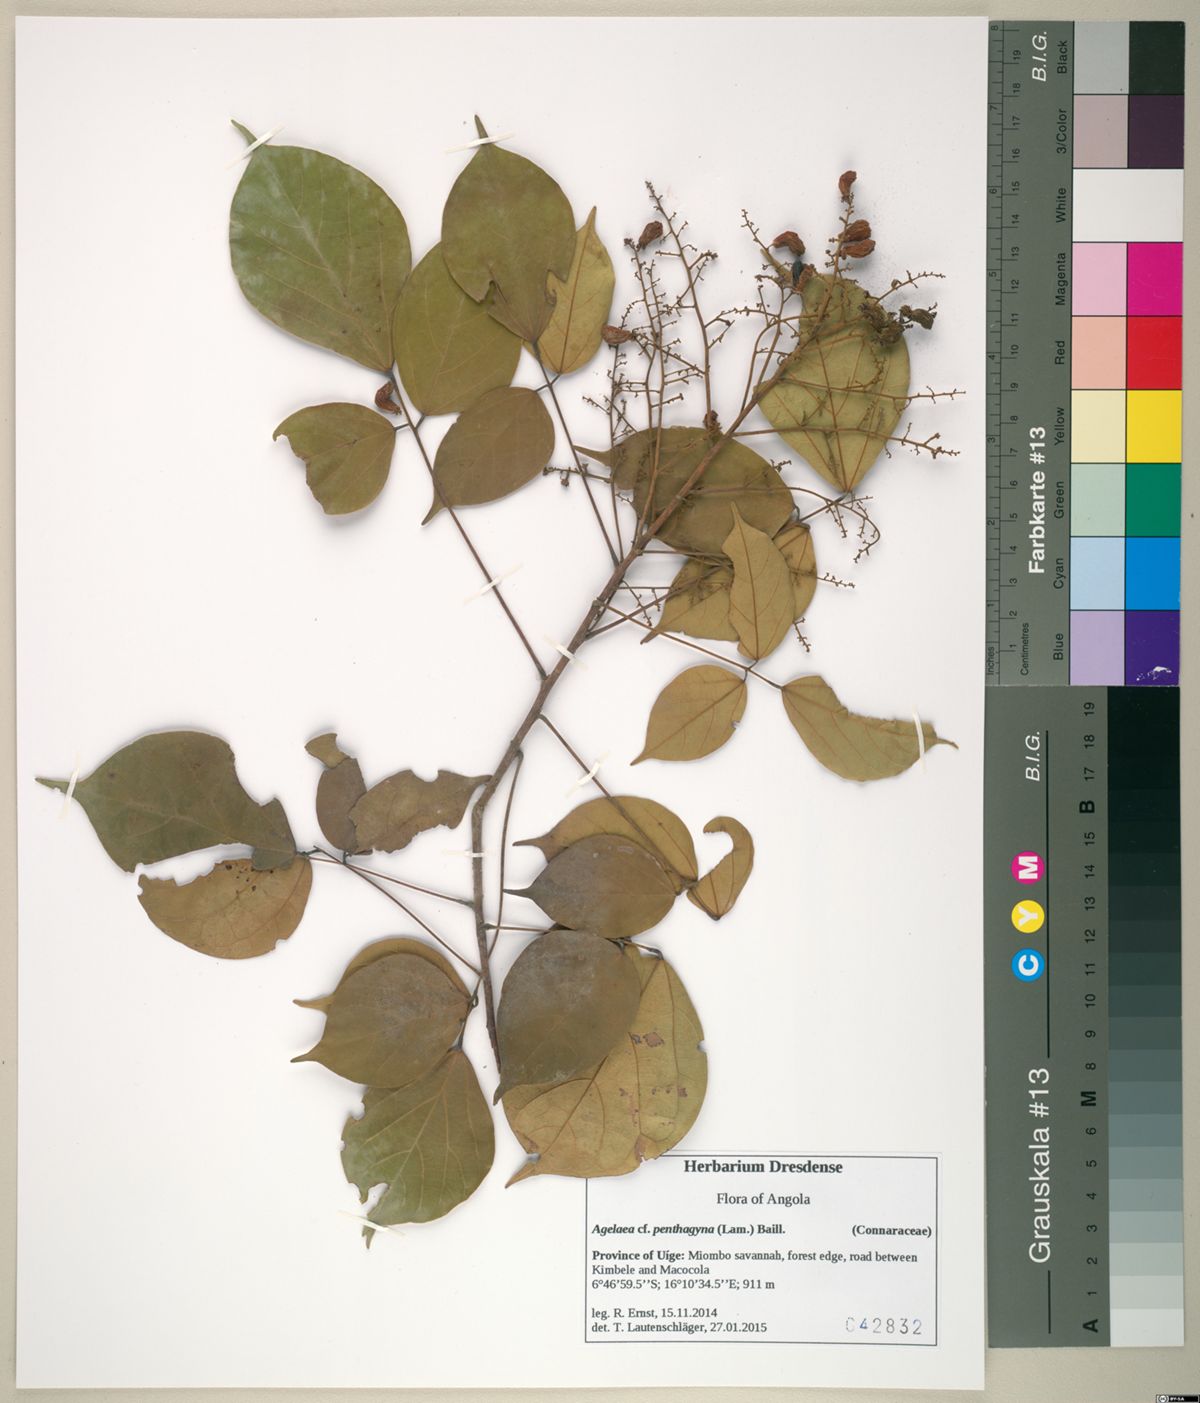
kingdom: Plantae
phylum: Tracheophyta
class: Magnoliopsida
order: Oxalidales
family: Connaraceae
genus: Agelaea
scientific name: Agelaea pentagyna
